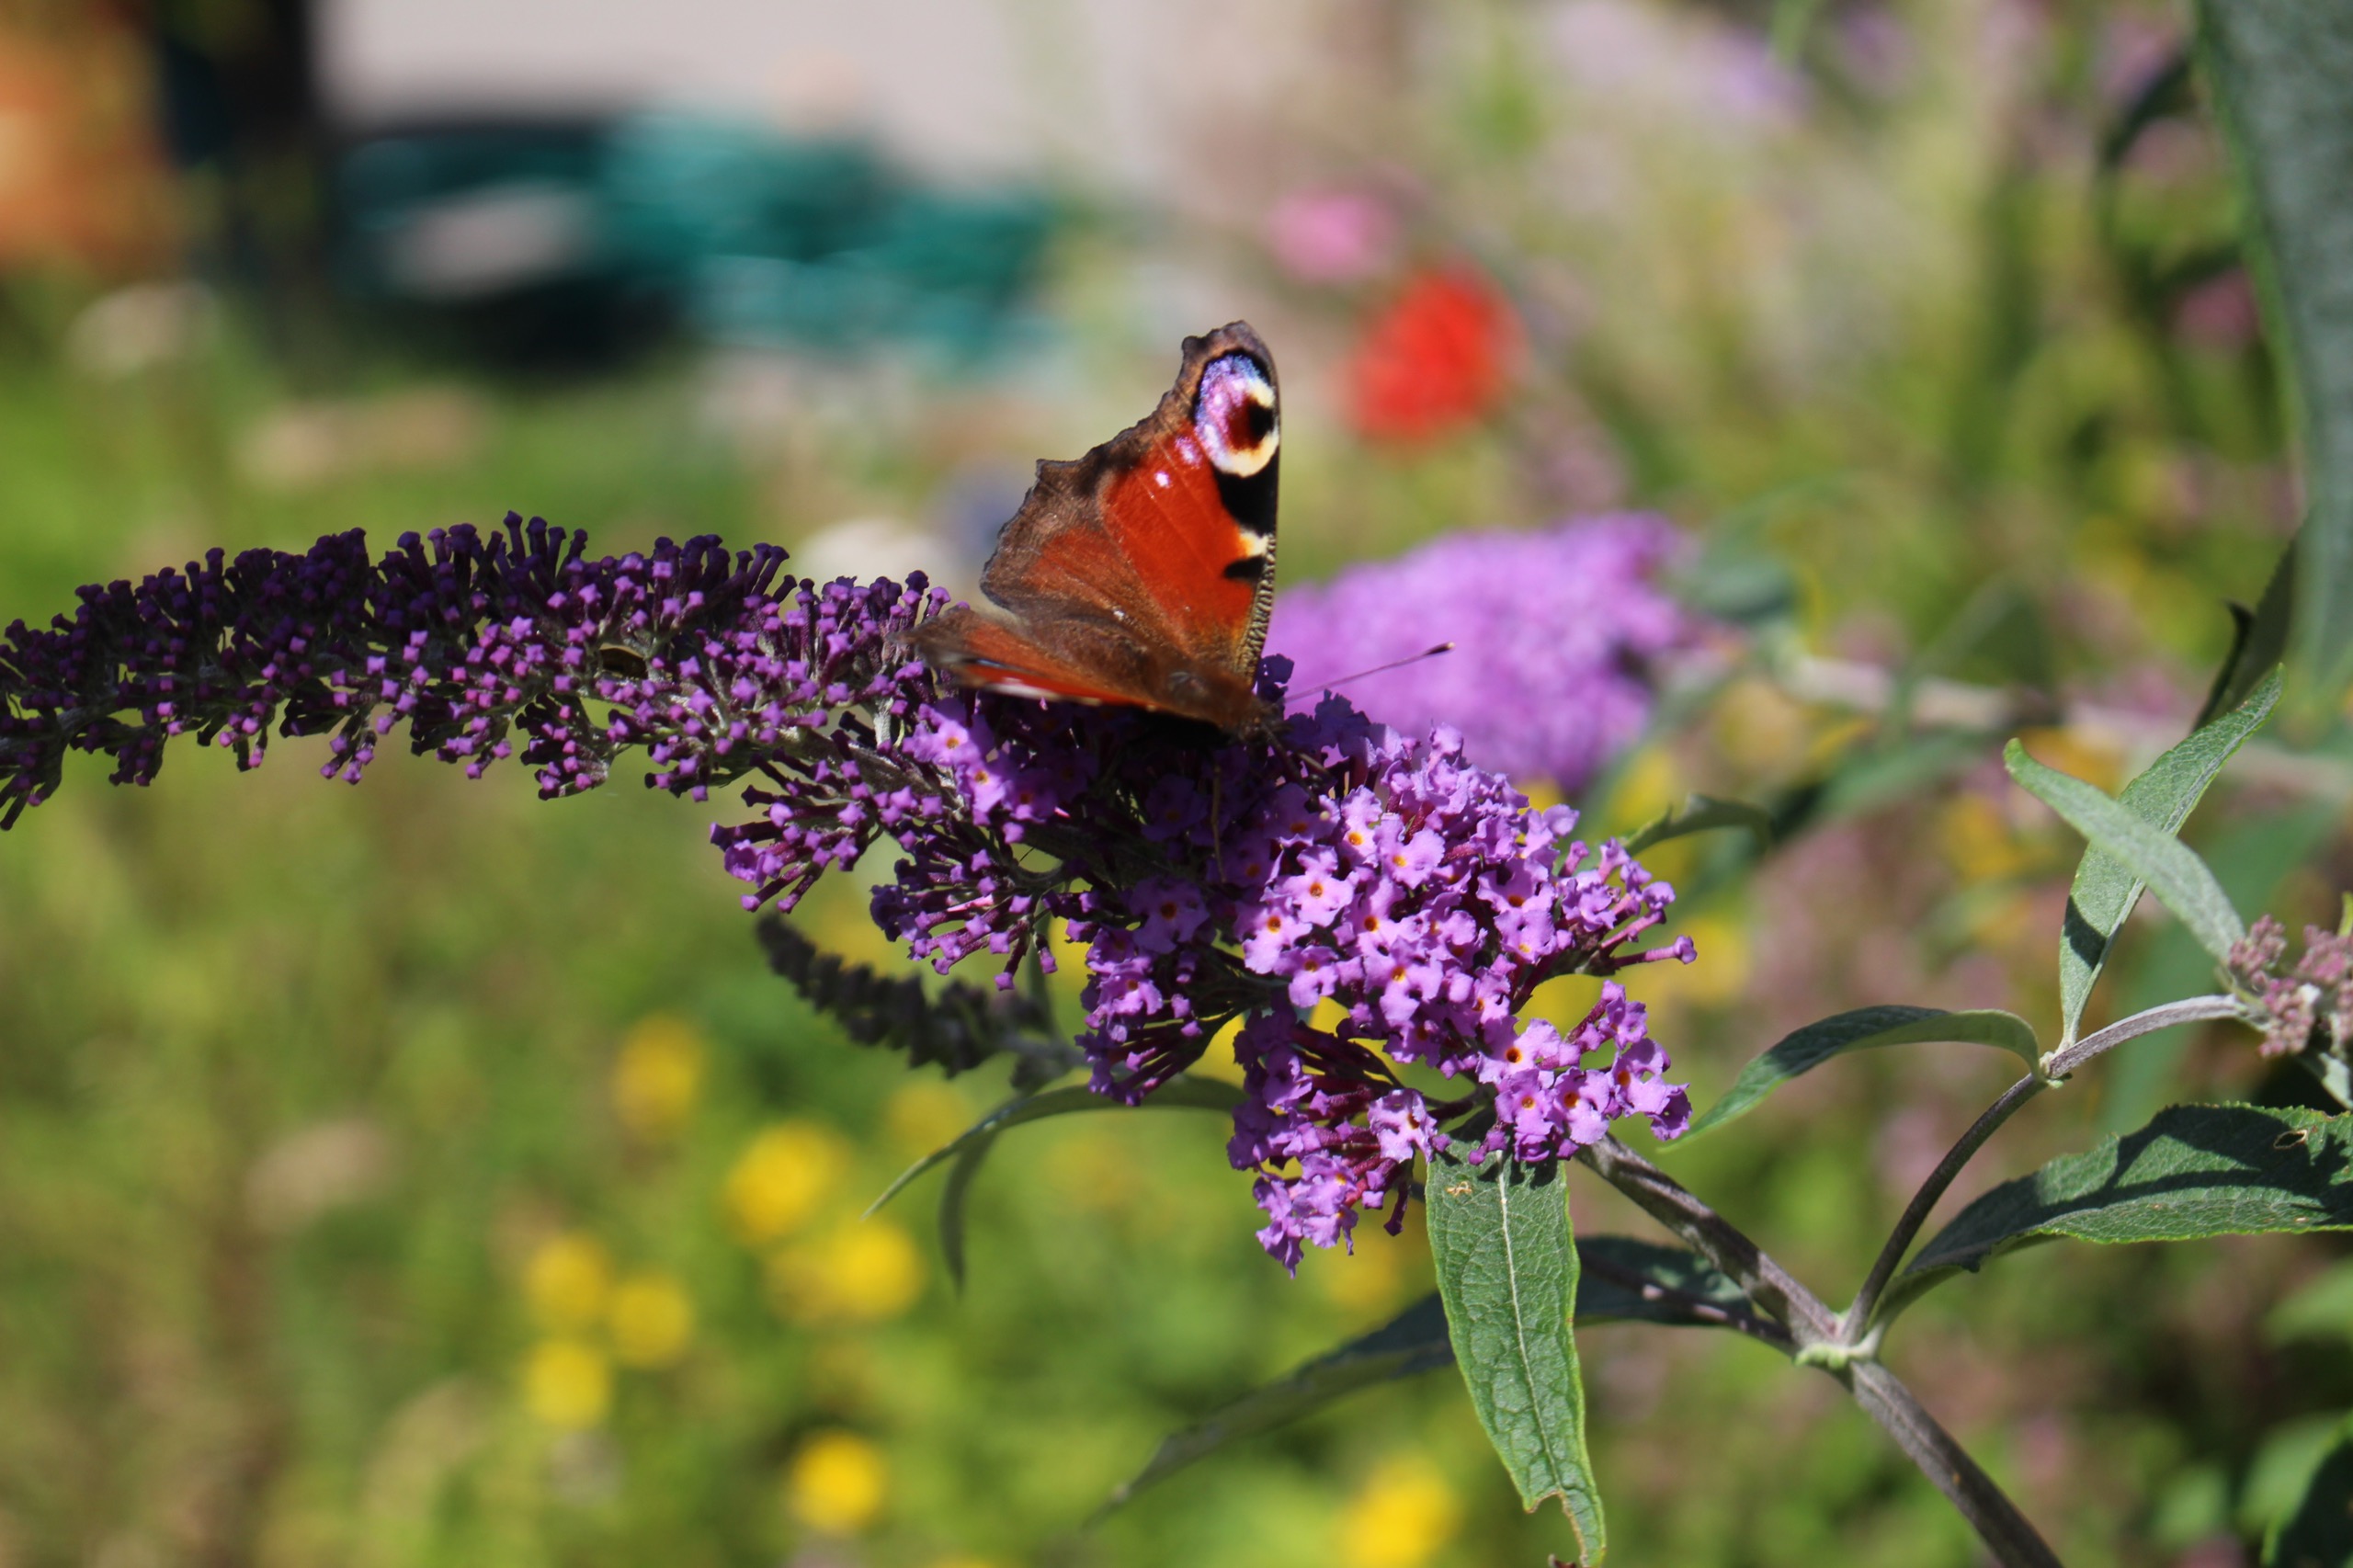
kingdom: Animalia
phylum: Arthropoda
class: Insecta
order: Lepidoptera
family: Nymphalidae
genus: Aglais
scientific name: Aglais io
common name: Dagpåfugleøje
